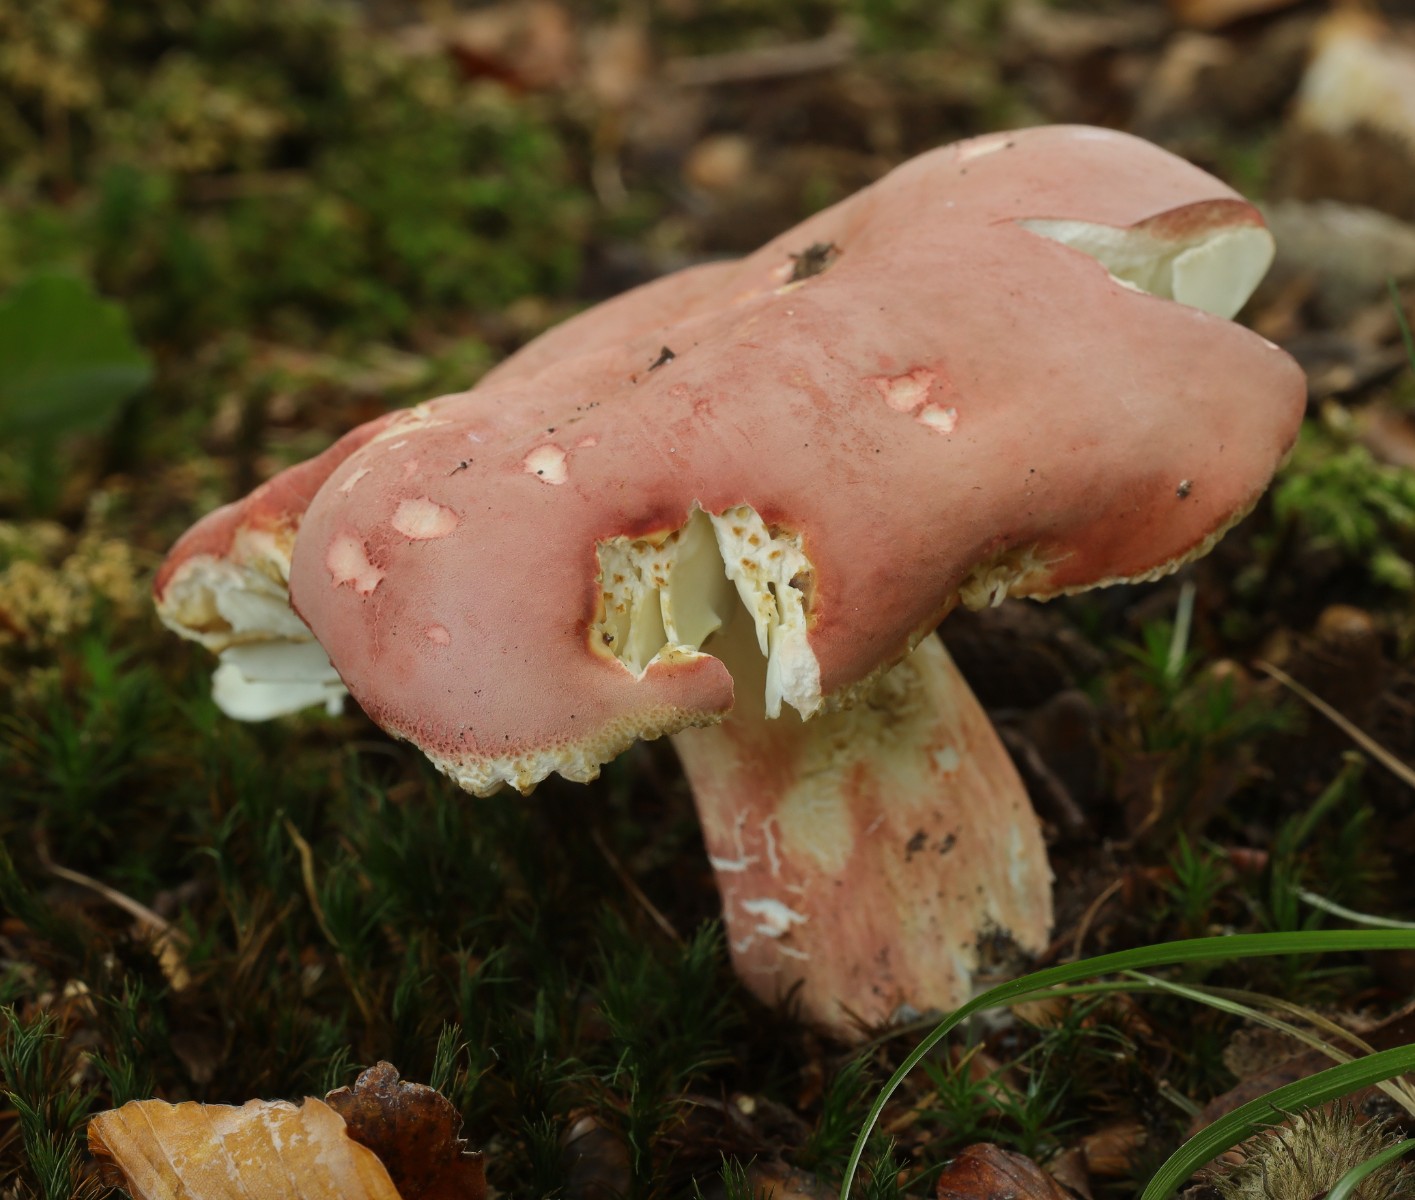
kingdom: Fungi
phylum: Basidiomycota
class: Agaricomycetes
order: Russulales
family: Russulaceae
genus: Russula
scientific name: Russula rosea
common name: fastkødet skørhat
